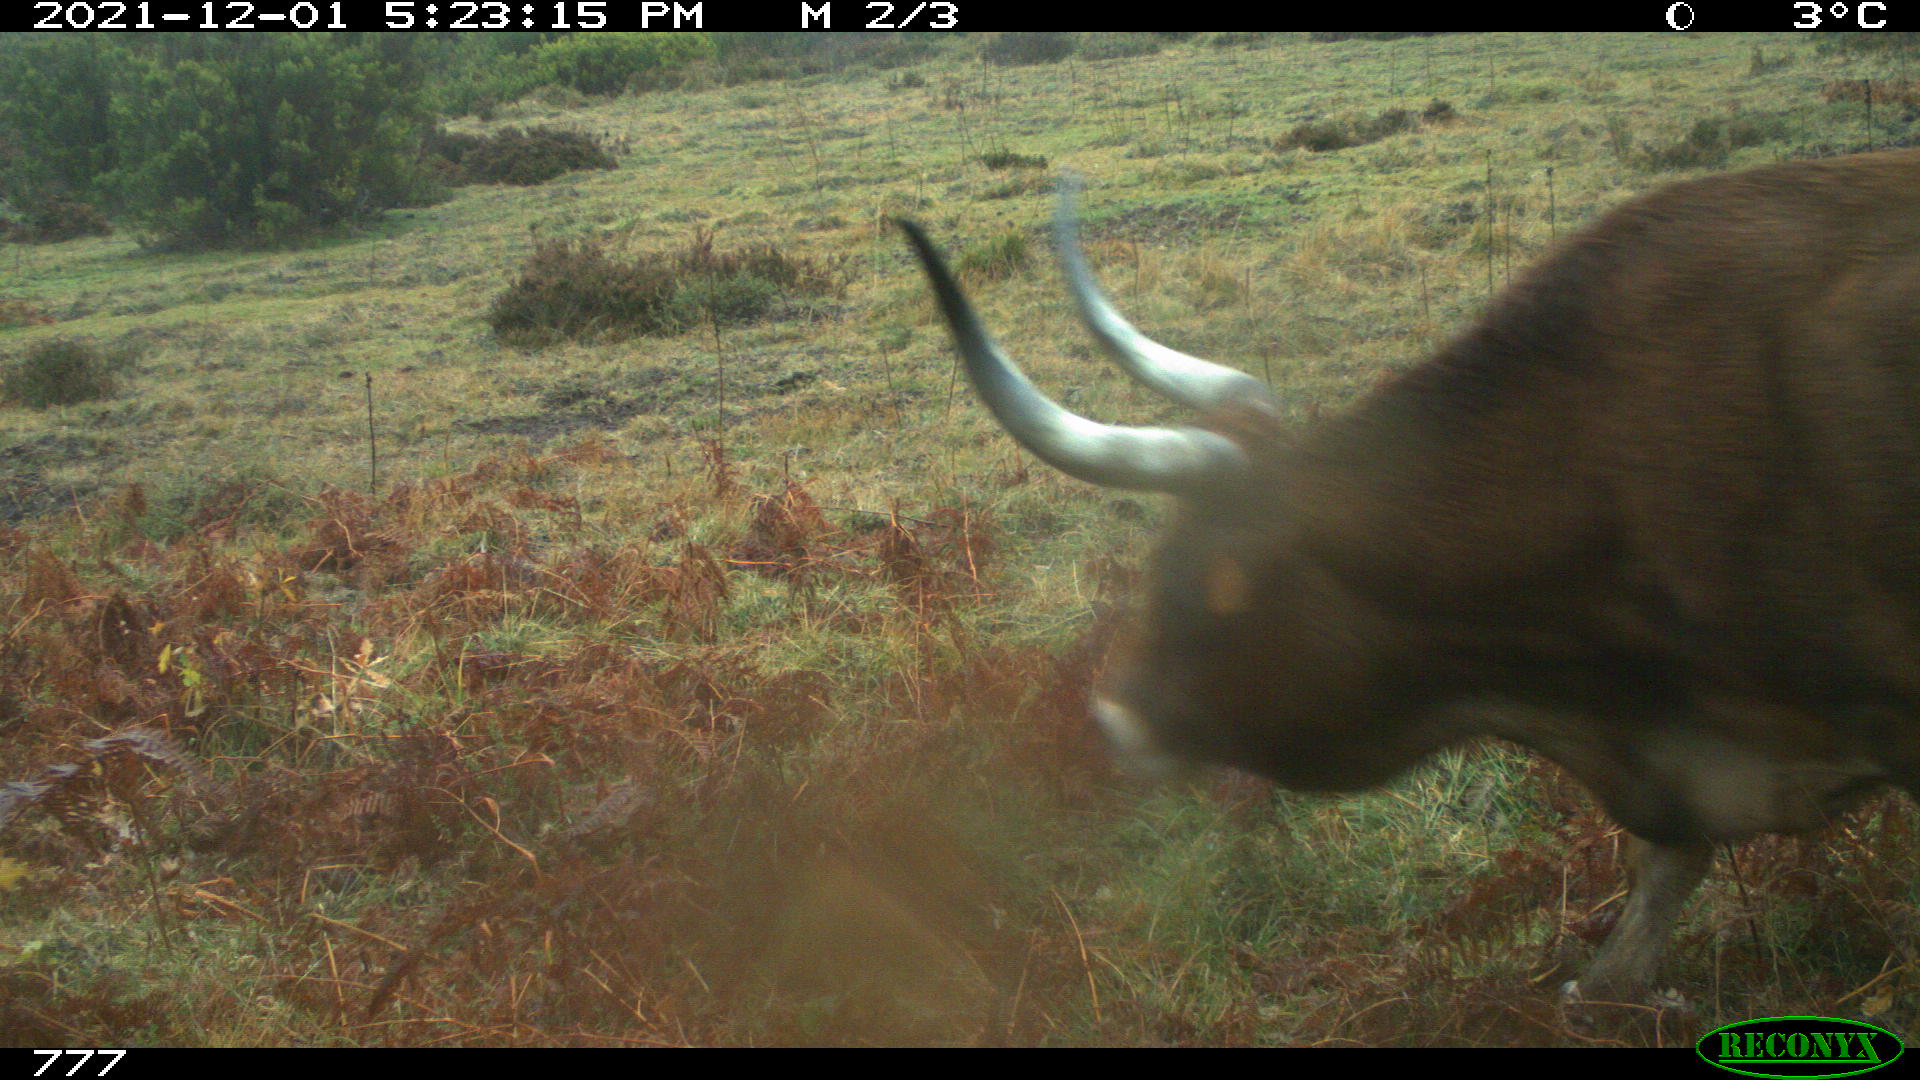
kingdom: Animalia
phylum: Chordata
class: Mammalia
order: Artiodactyla
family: Bovidae
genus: Bos
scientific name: Bos taurus
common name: Domesticated cattle
